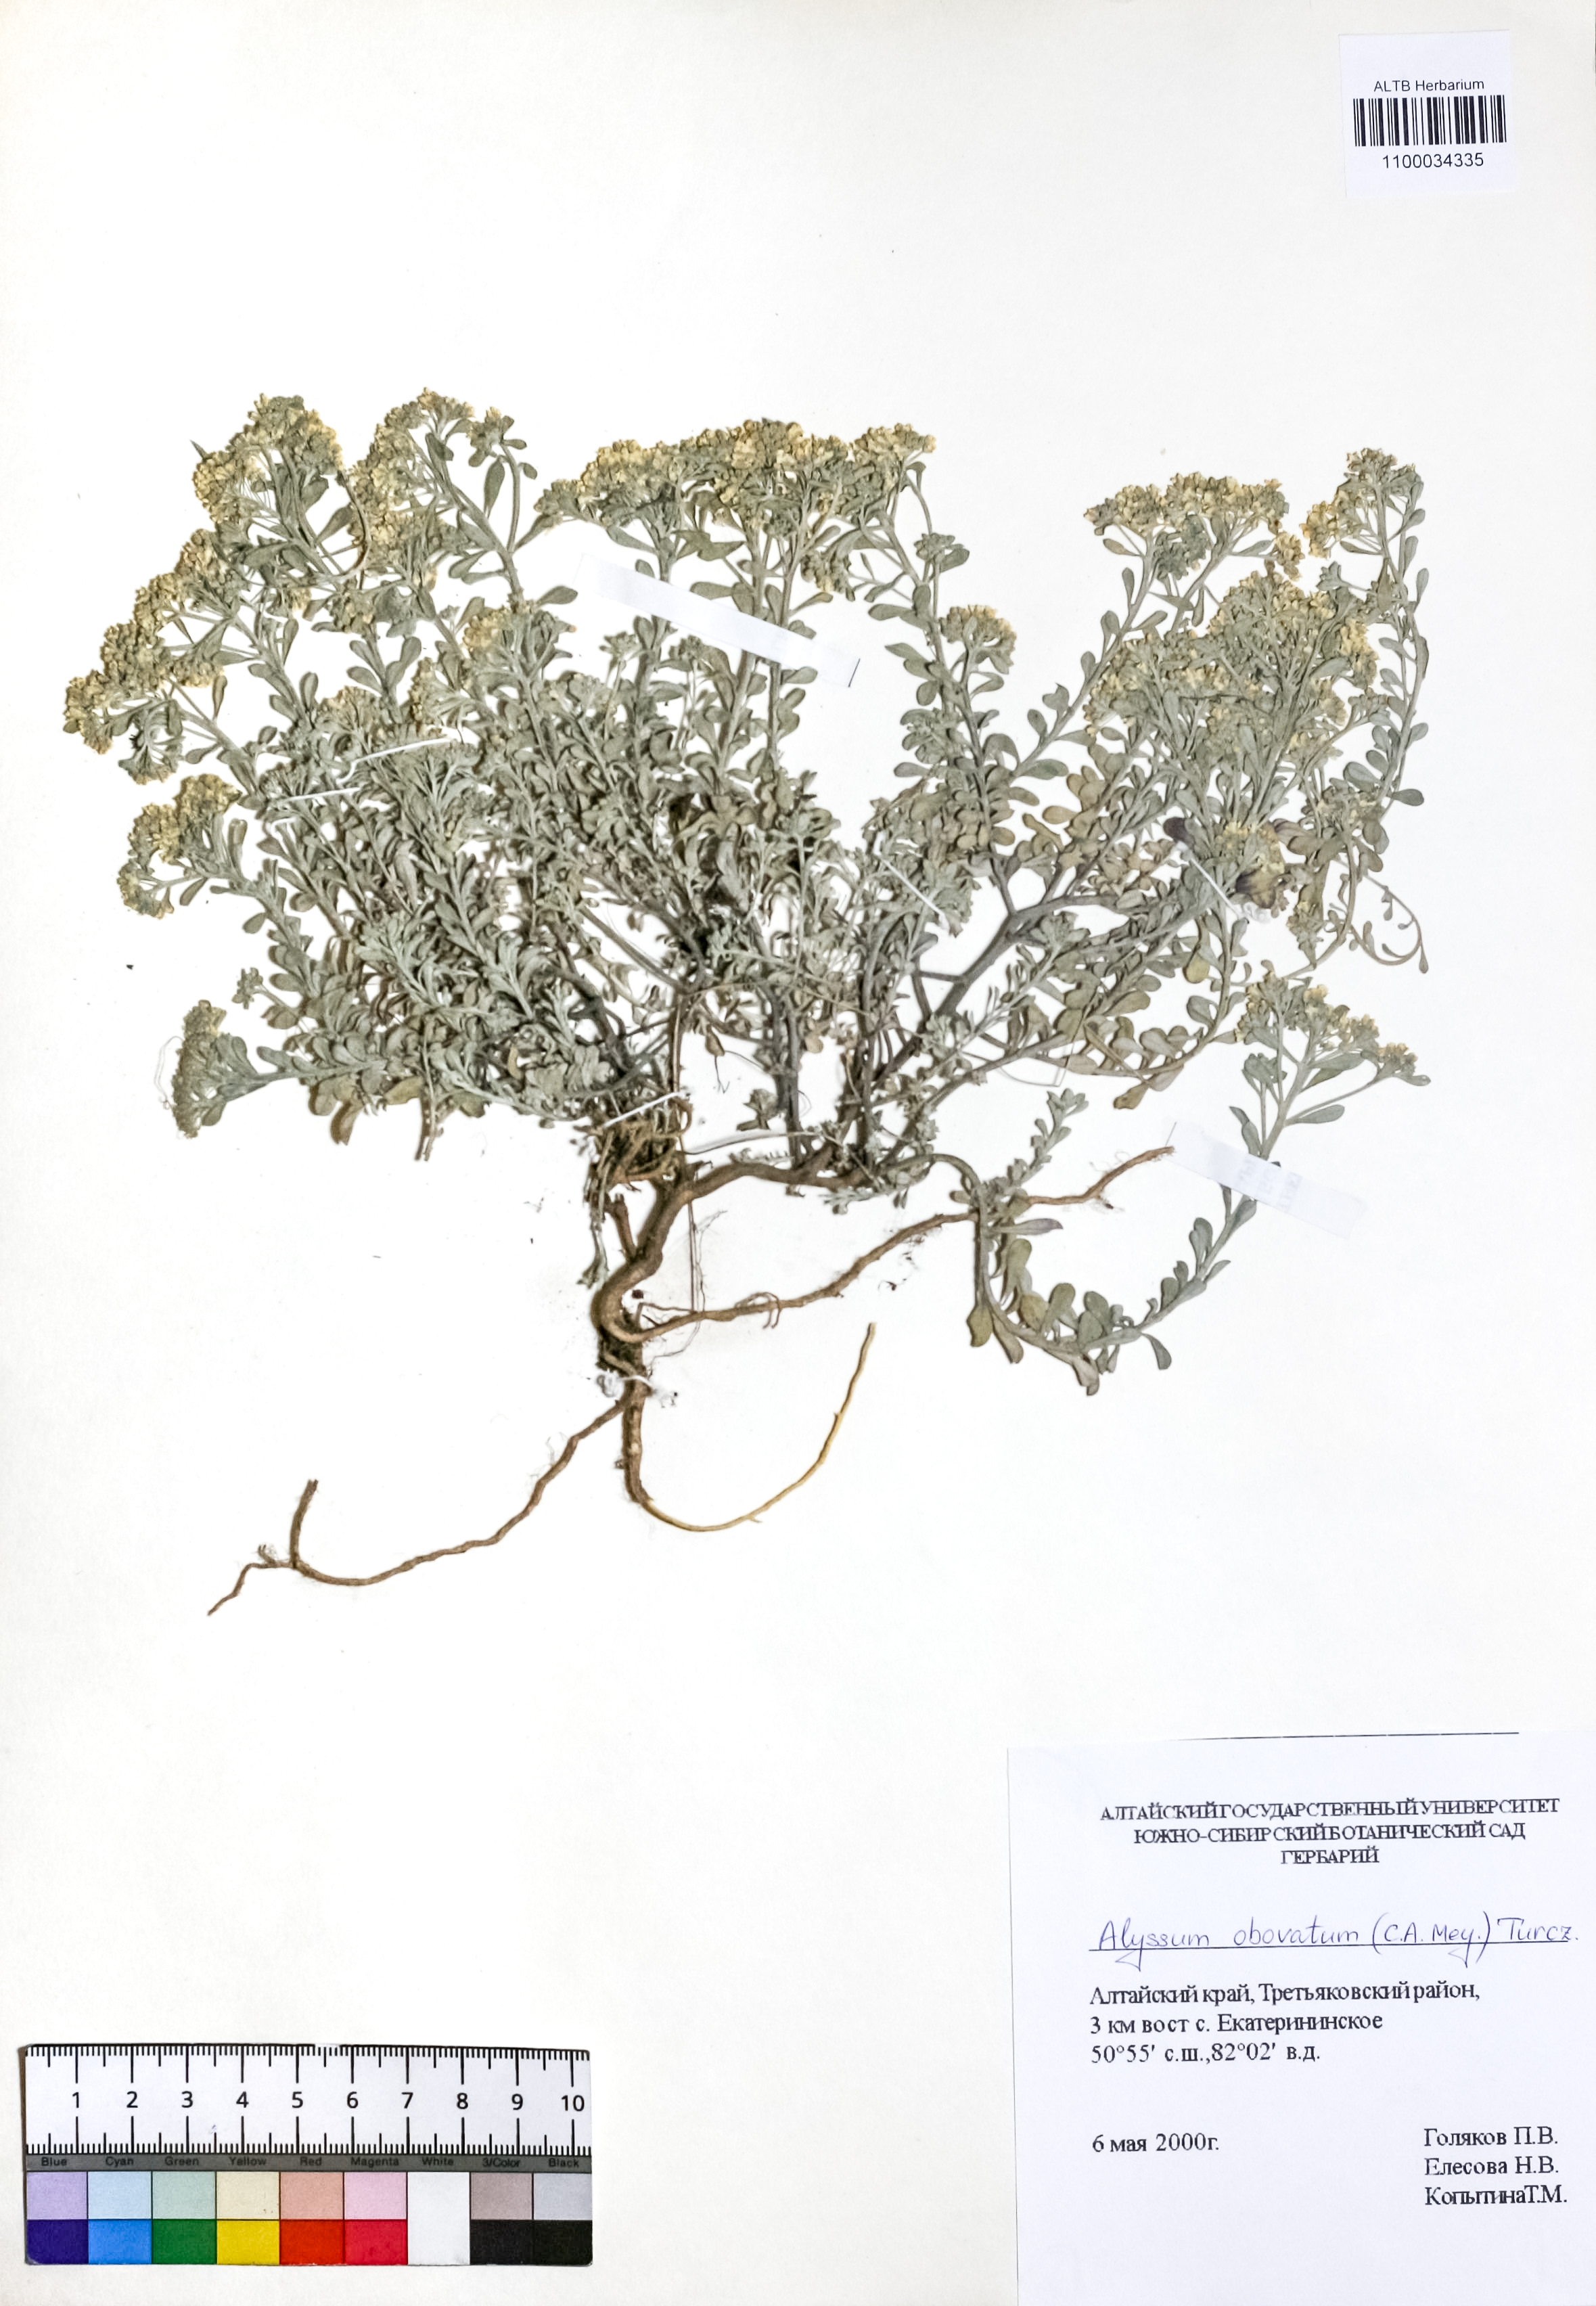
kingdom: Plantae
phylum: Tracheophyta
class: Magnoliopsida
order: Brassicales
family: Brassicaceae
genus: Odontarrhena
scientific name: Odontarrhena obovata
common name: American alyssum
